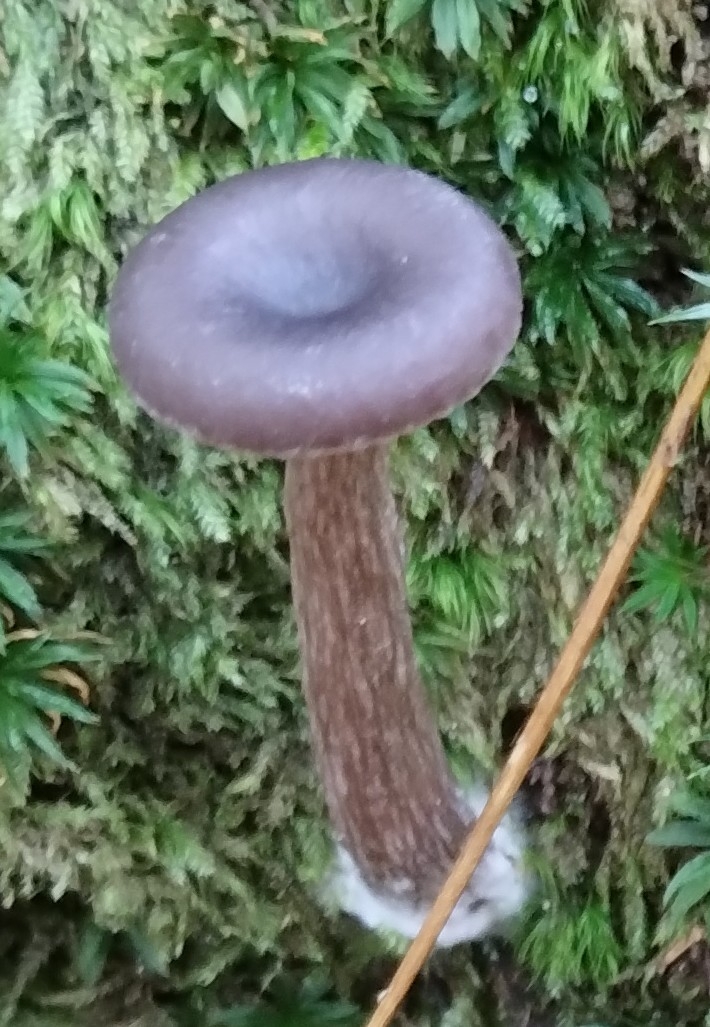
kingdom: Fungi
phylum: Basidiomycota
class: Agaricomycetes
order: Agaricales
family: Pseudoclitocybaceae
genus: Pseudoclitocybe
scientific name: Pseudoclitocybe cyathiformis
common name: almindelig bægertragthat
